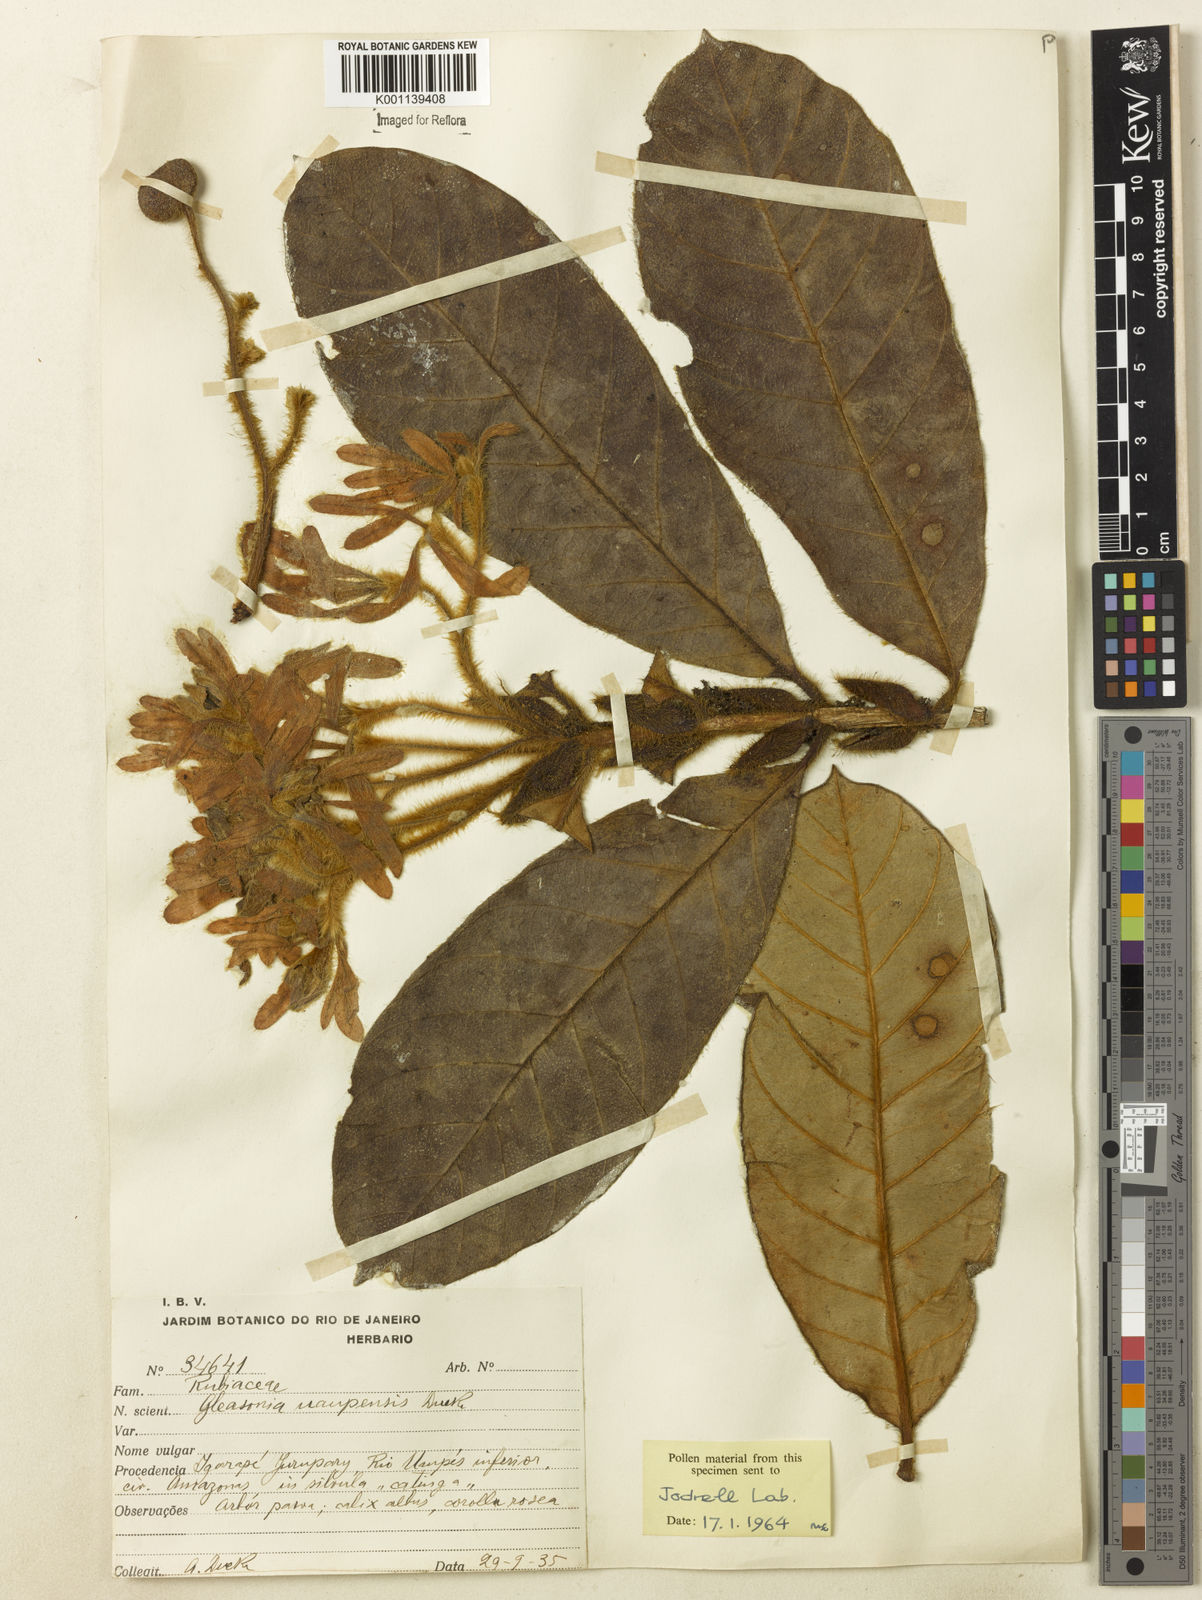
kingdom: Plantae
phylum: Tracheophyta
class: Magnoliopsida
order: Gentianales
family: Rubiaceae
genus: Gleasonia
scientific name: Gleasonia uaupensis
